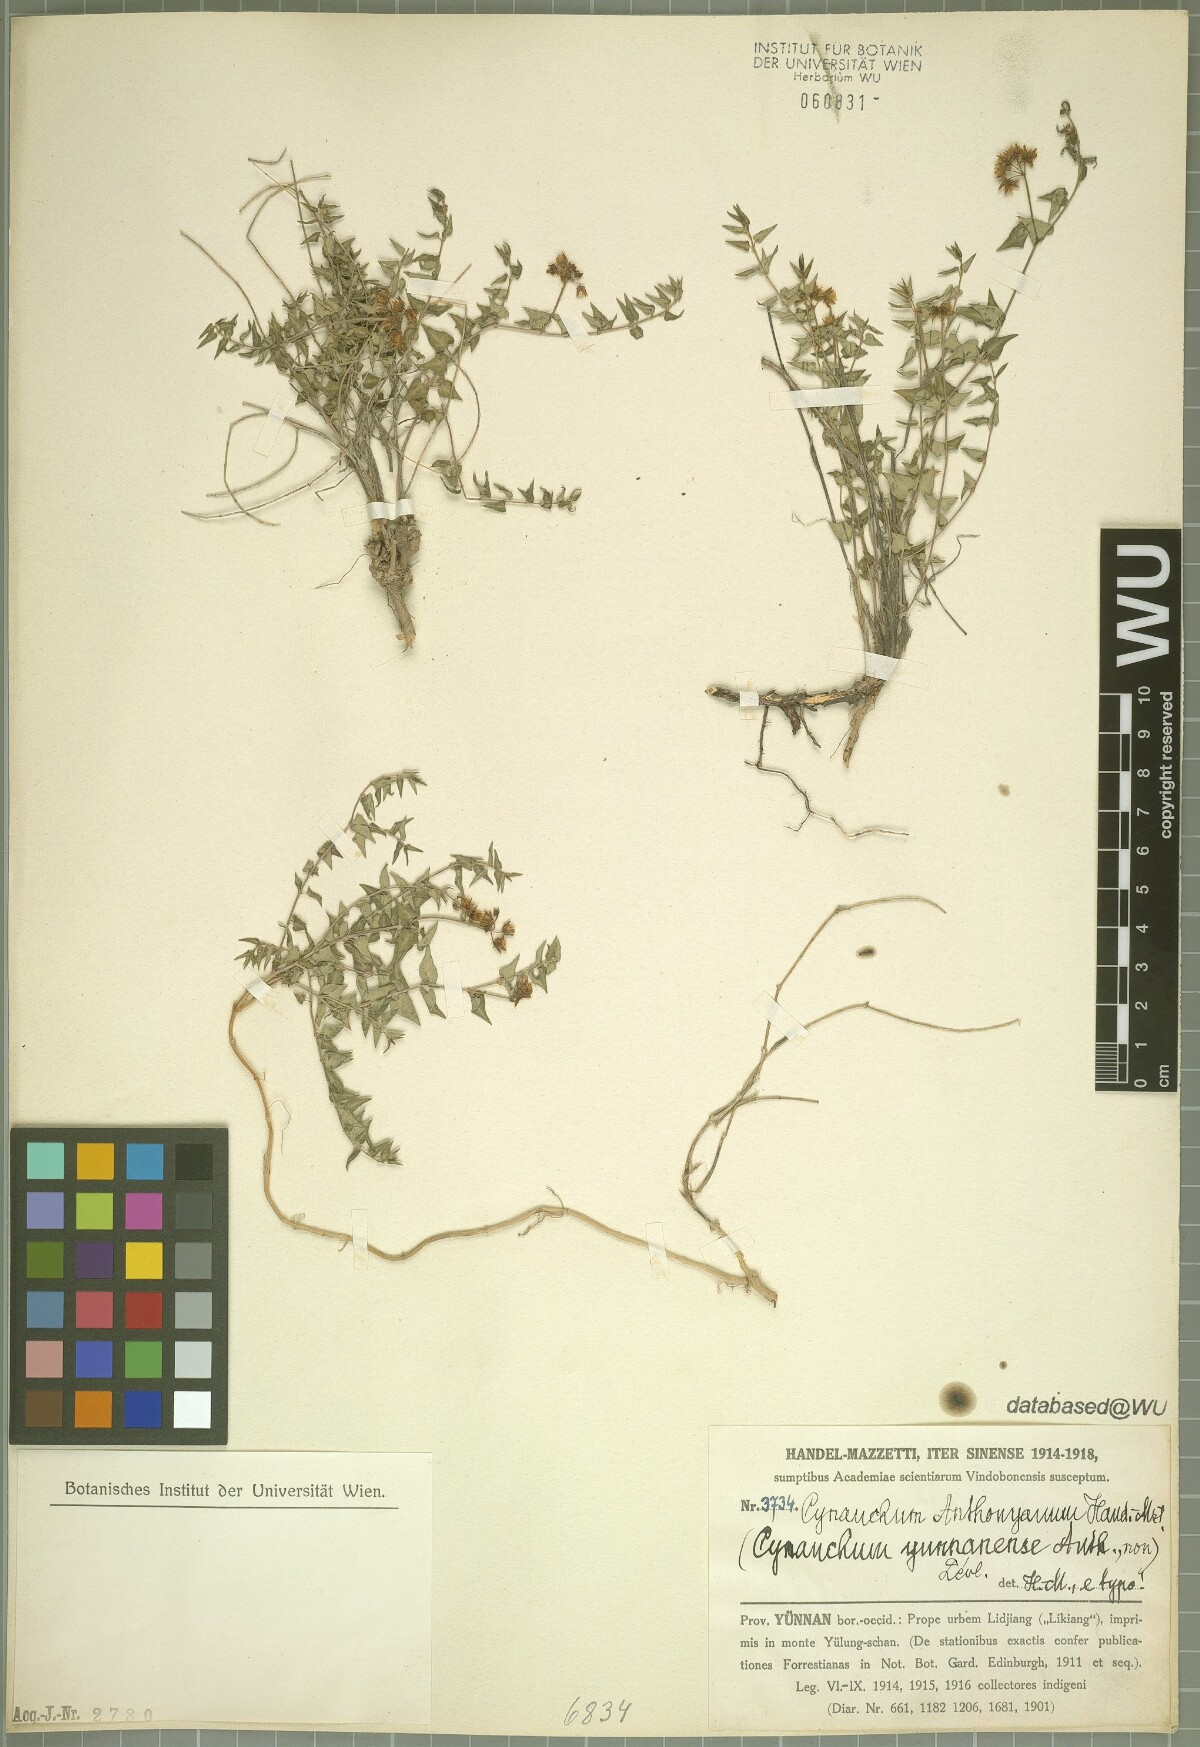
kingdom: Plantae
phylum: Tracheophyta
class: Magnoliopsida
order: Gentianales
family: Apocynaceae
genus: Cynanchum
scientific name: Cynanchum anthonyanum
